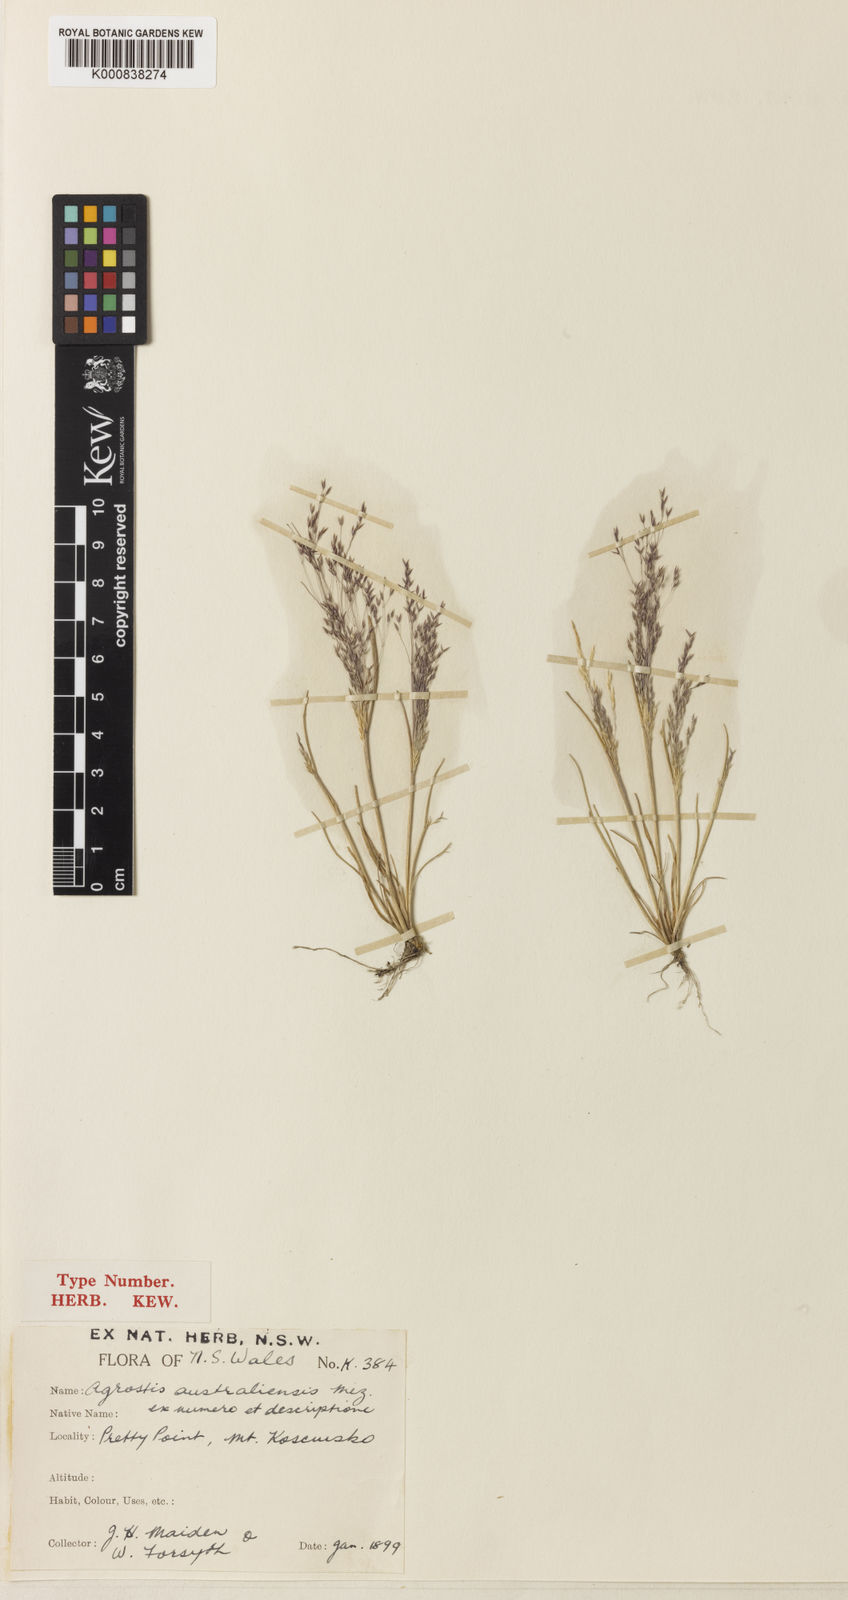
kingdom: Plantae
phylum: Tracheophyta
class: Liliopsida
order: Poales
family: Poaceae
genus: Agrostis
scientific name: Agrostis australiensis
